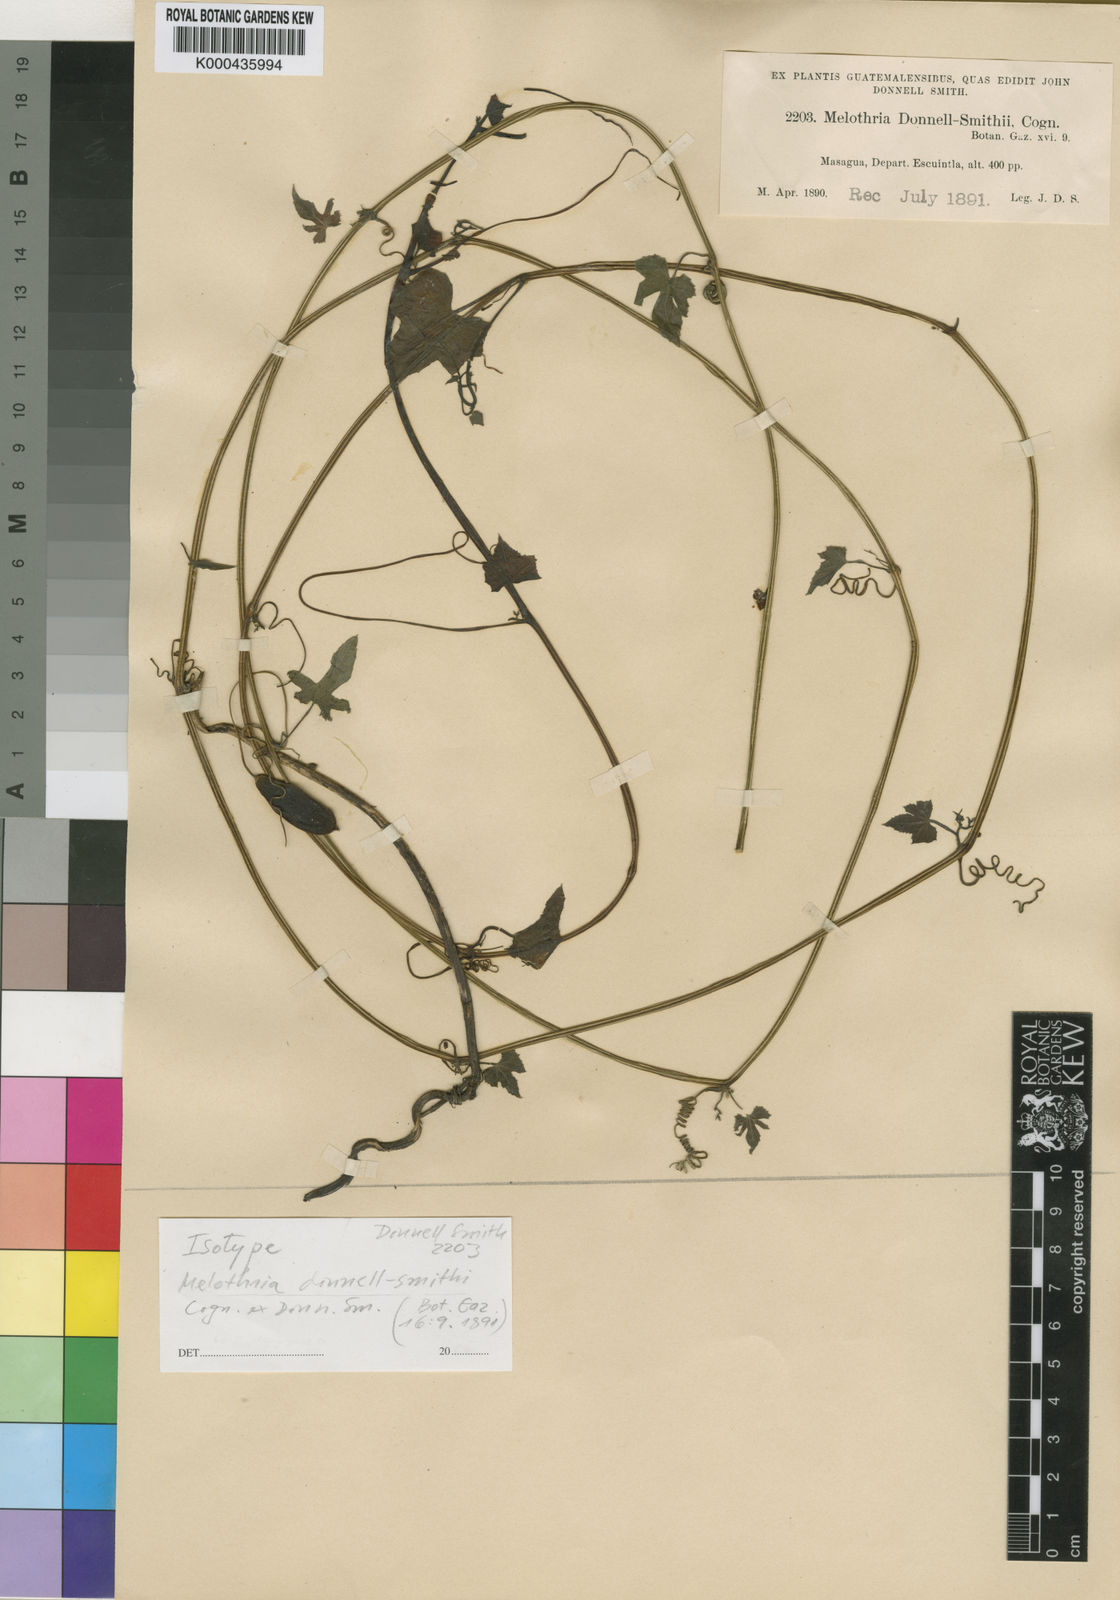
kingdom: Plantae
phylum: Tracheophyta
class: Magnoliopsida
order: Cucurbitales
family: Cucurbitaceae
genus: Melothria
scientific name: Melothria scabra
